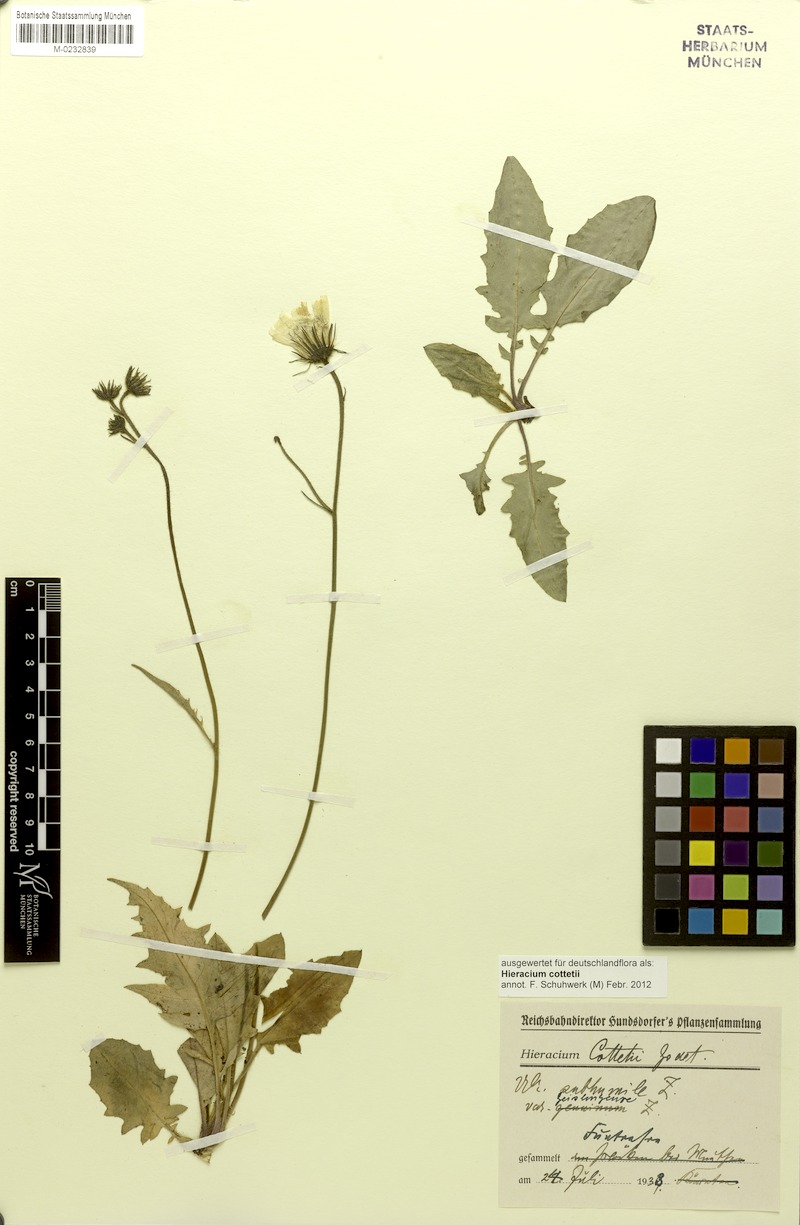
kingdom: Plantae
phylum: Tracheophyta
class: Magnoliopsida
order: Asterales
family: Asteraceae
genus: Hieracium
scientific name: Hieracium cottetii
